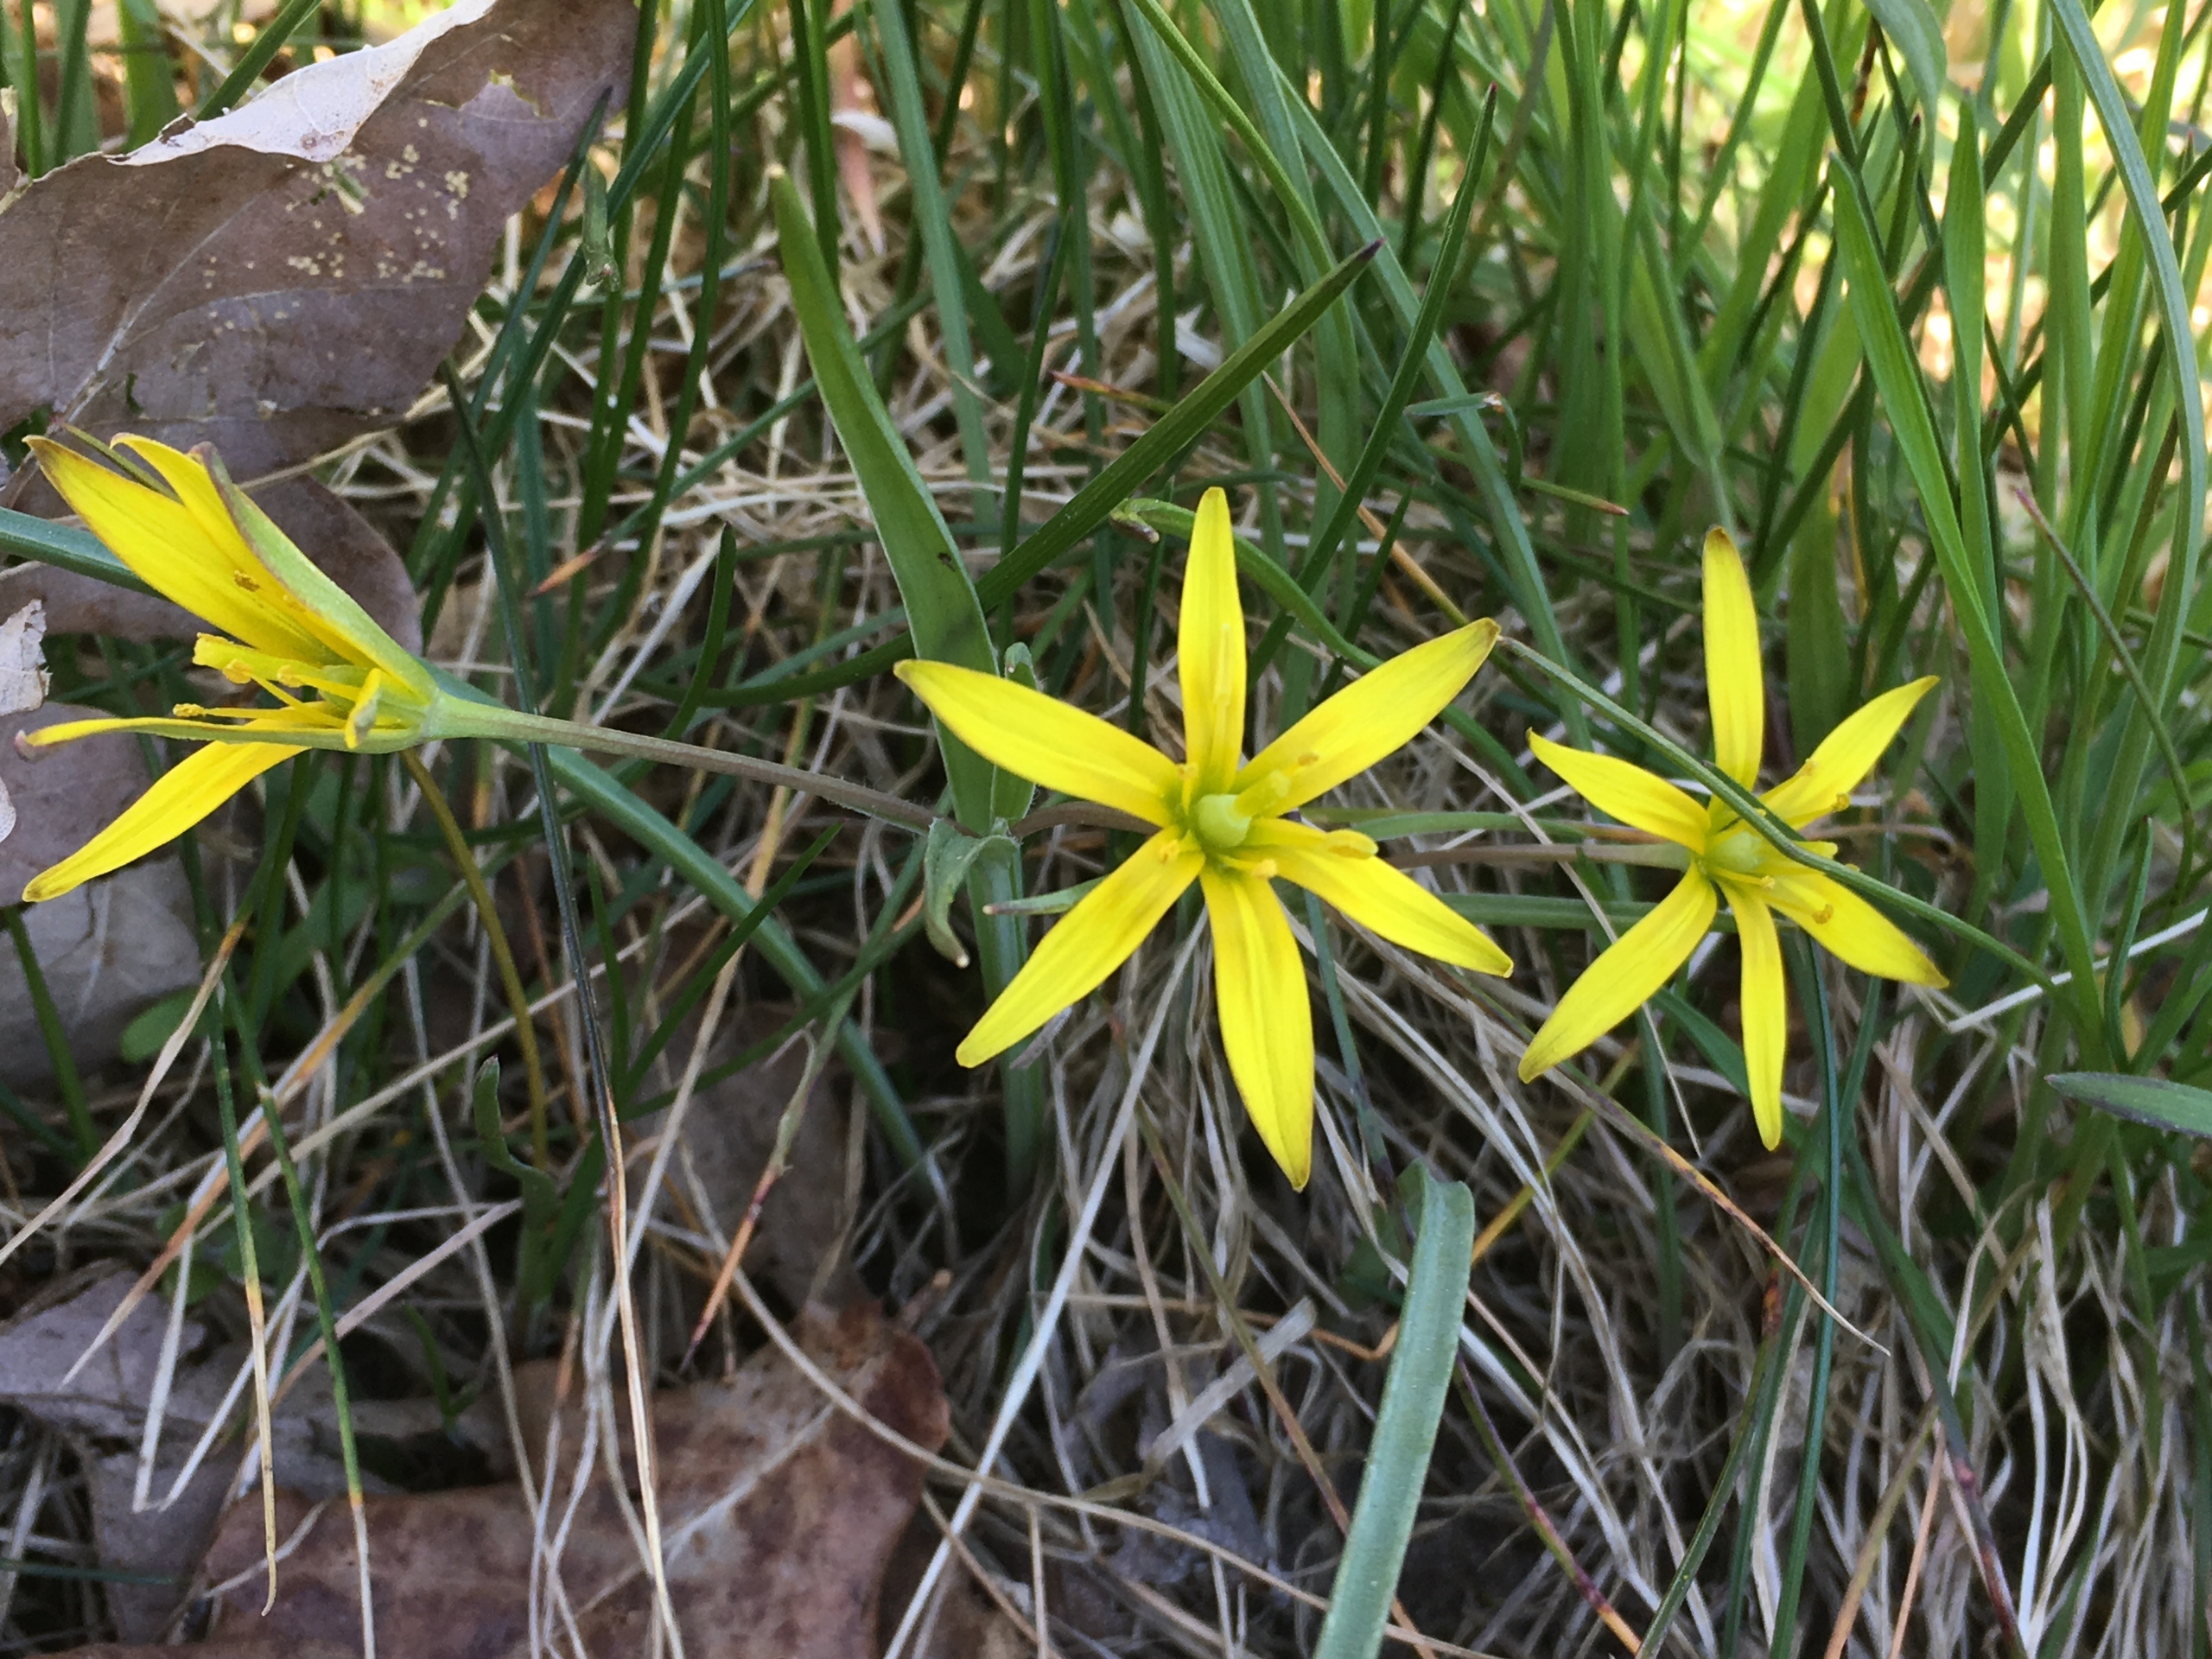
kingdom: Plantae
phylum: Tracheophyta
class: Liliopsida
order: Liliales
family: Liliaceae
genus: Gagea
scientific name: Gagea pratensis
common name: Eng-guldstjerne
